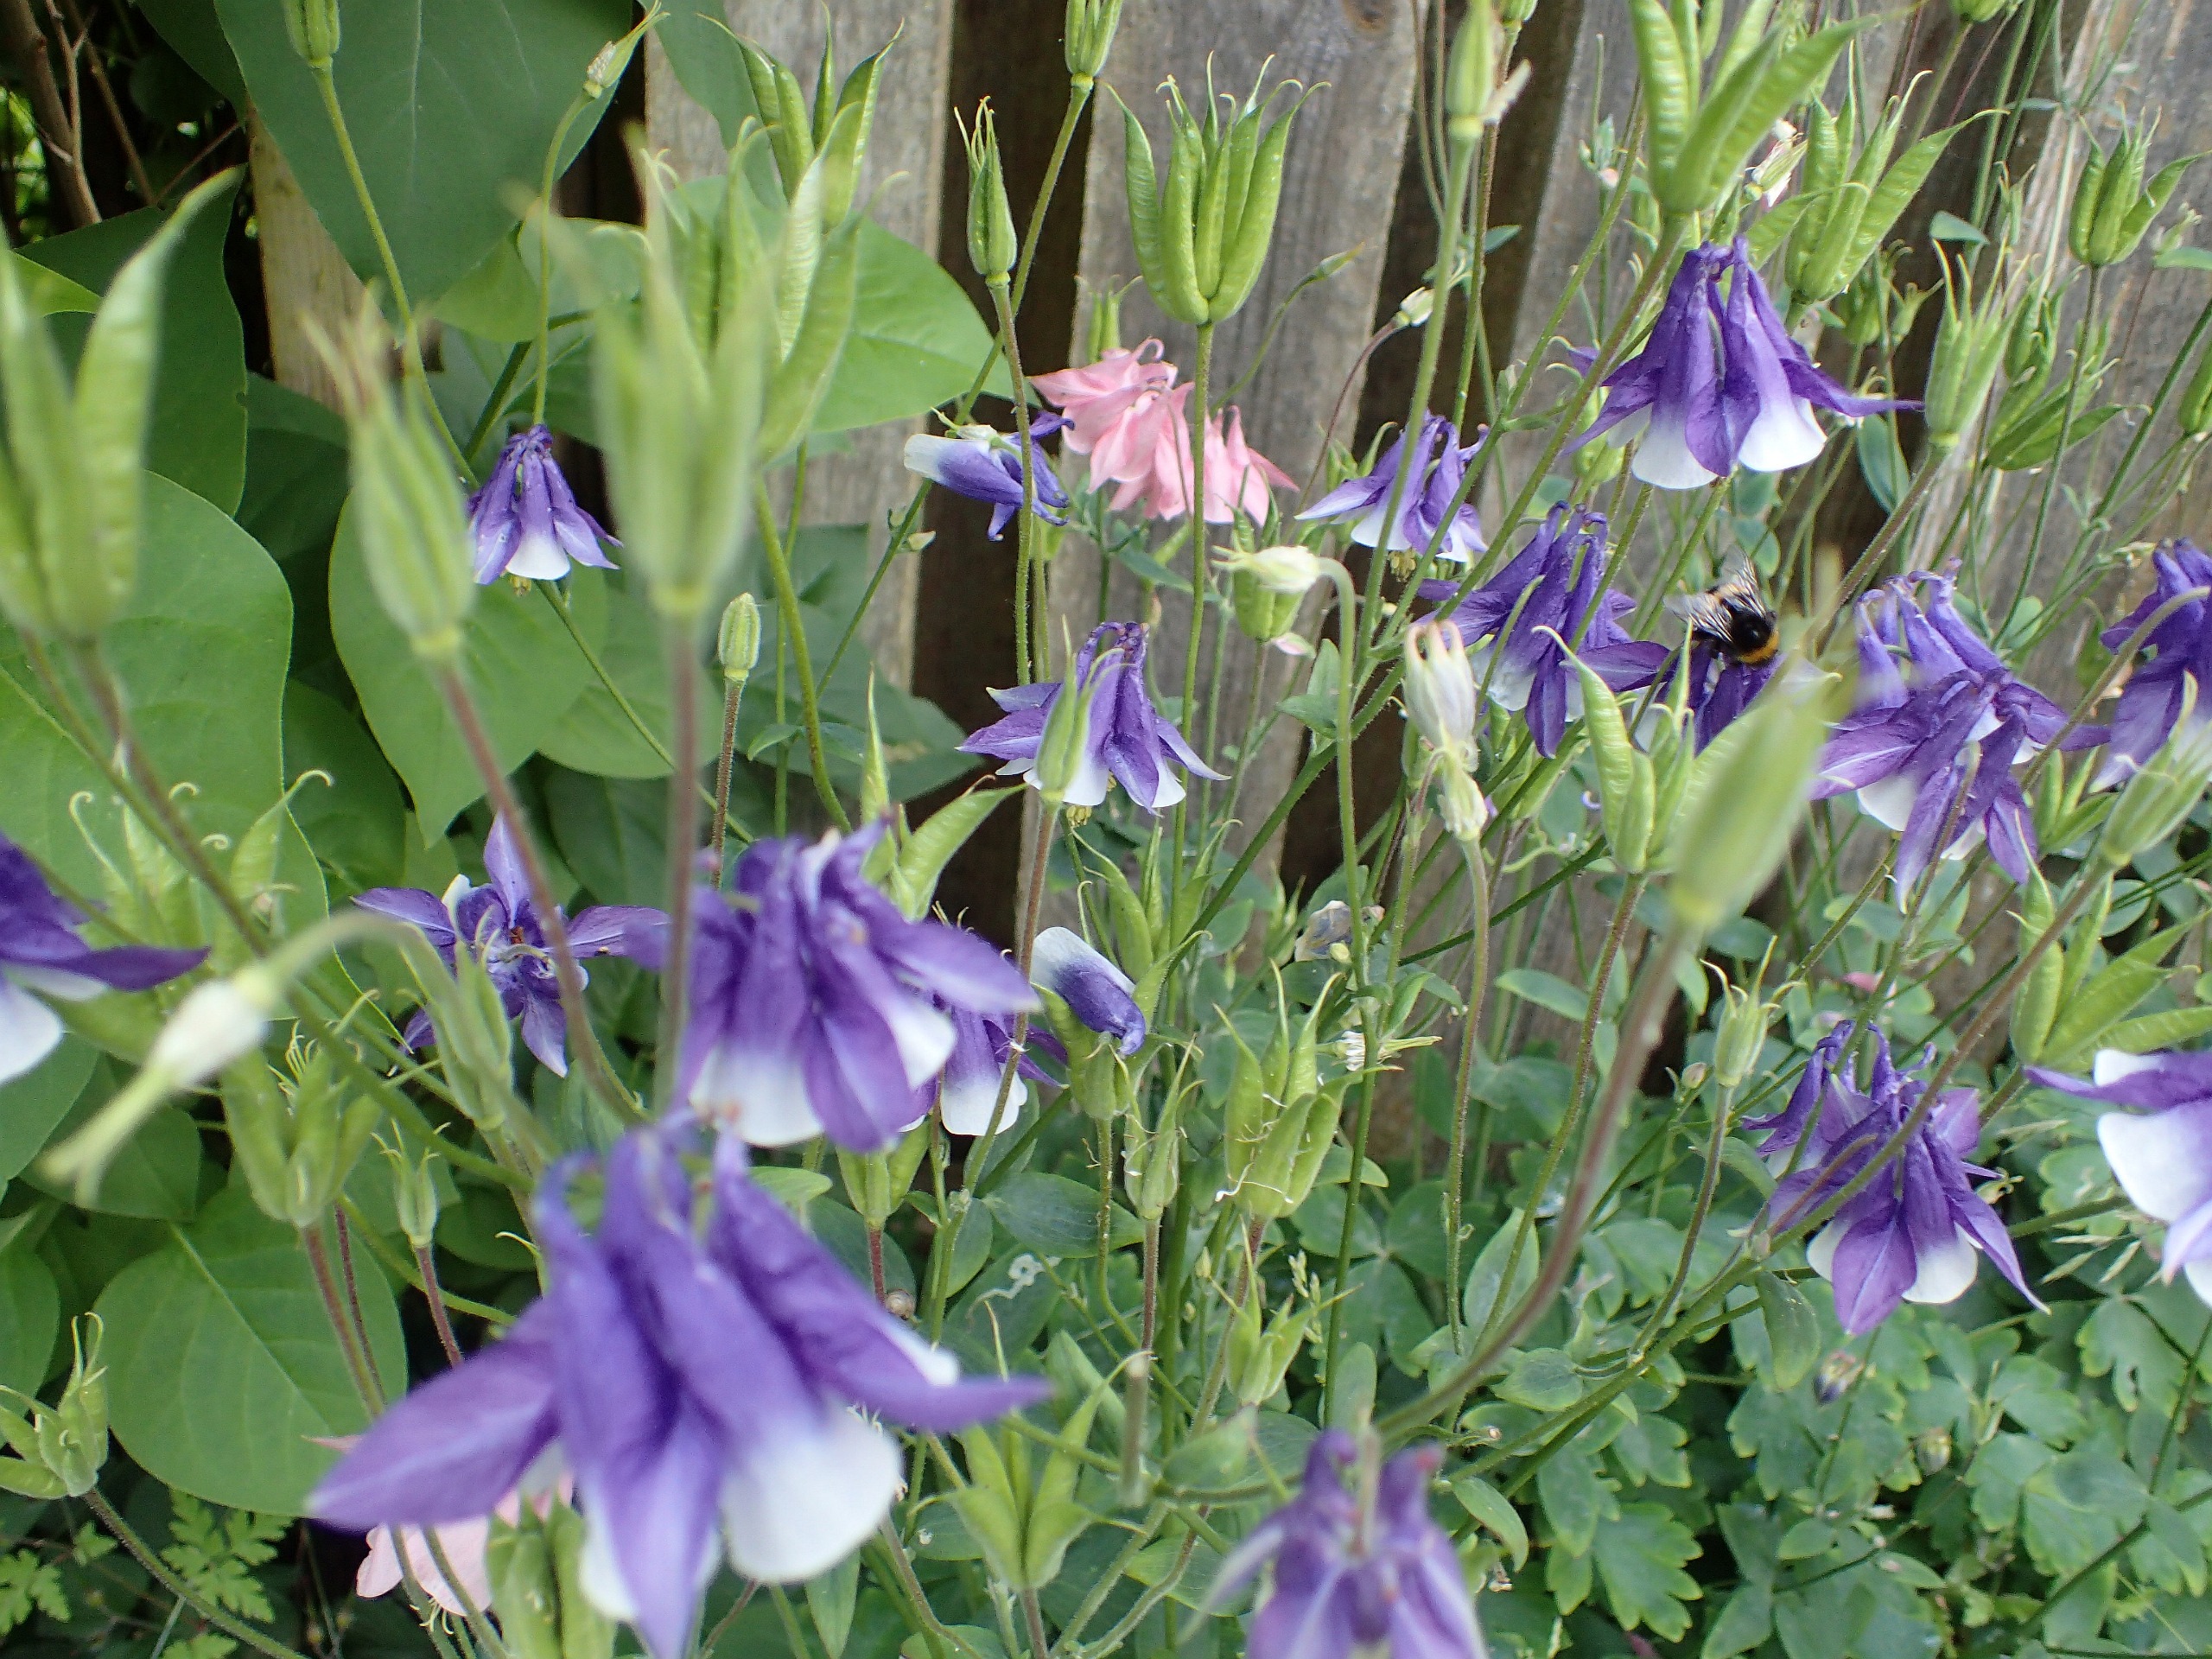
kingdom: Plantae
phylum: Tracheophyta
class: Magnoliopsida
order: Ranunculales
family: Ranunculaceae
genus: Aquilegia
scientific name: Aquilegia vulgaris
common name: Akeleje
